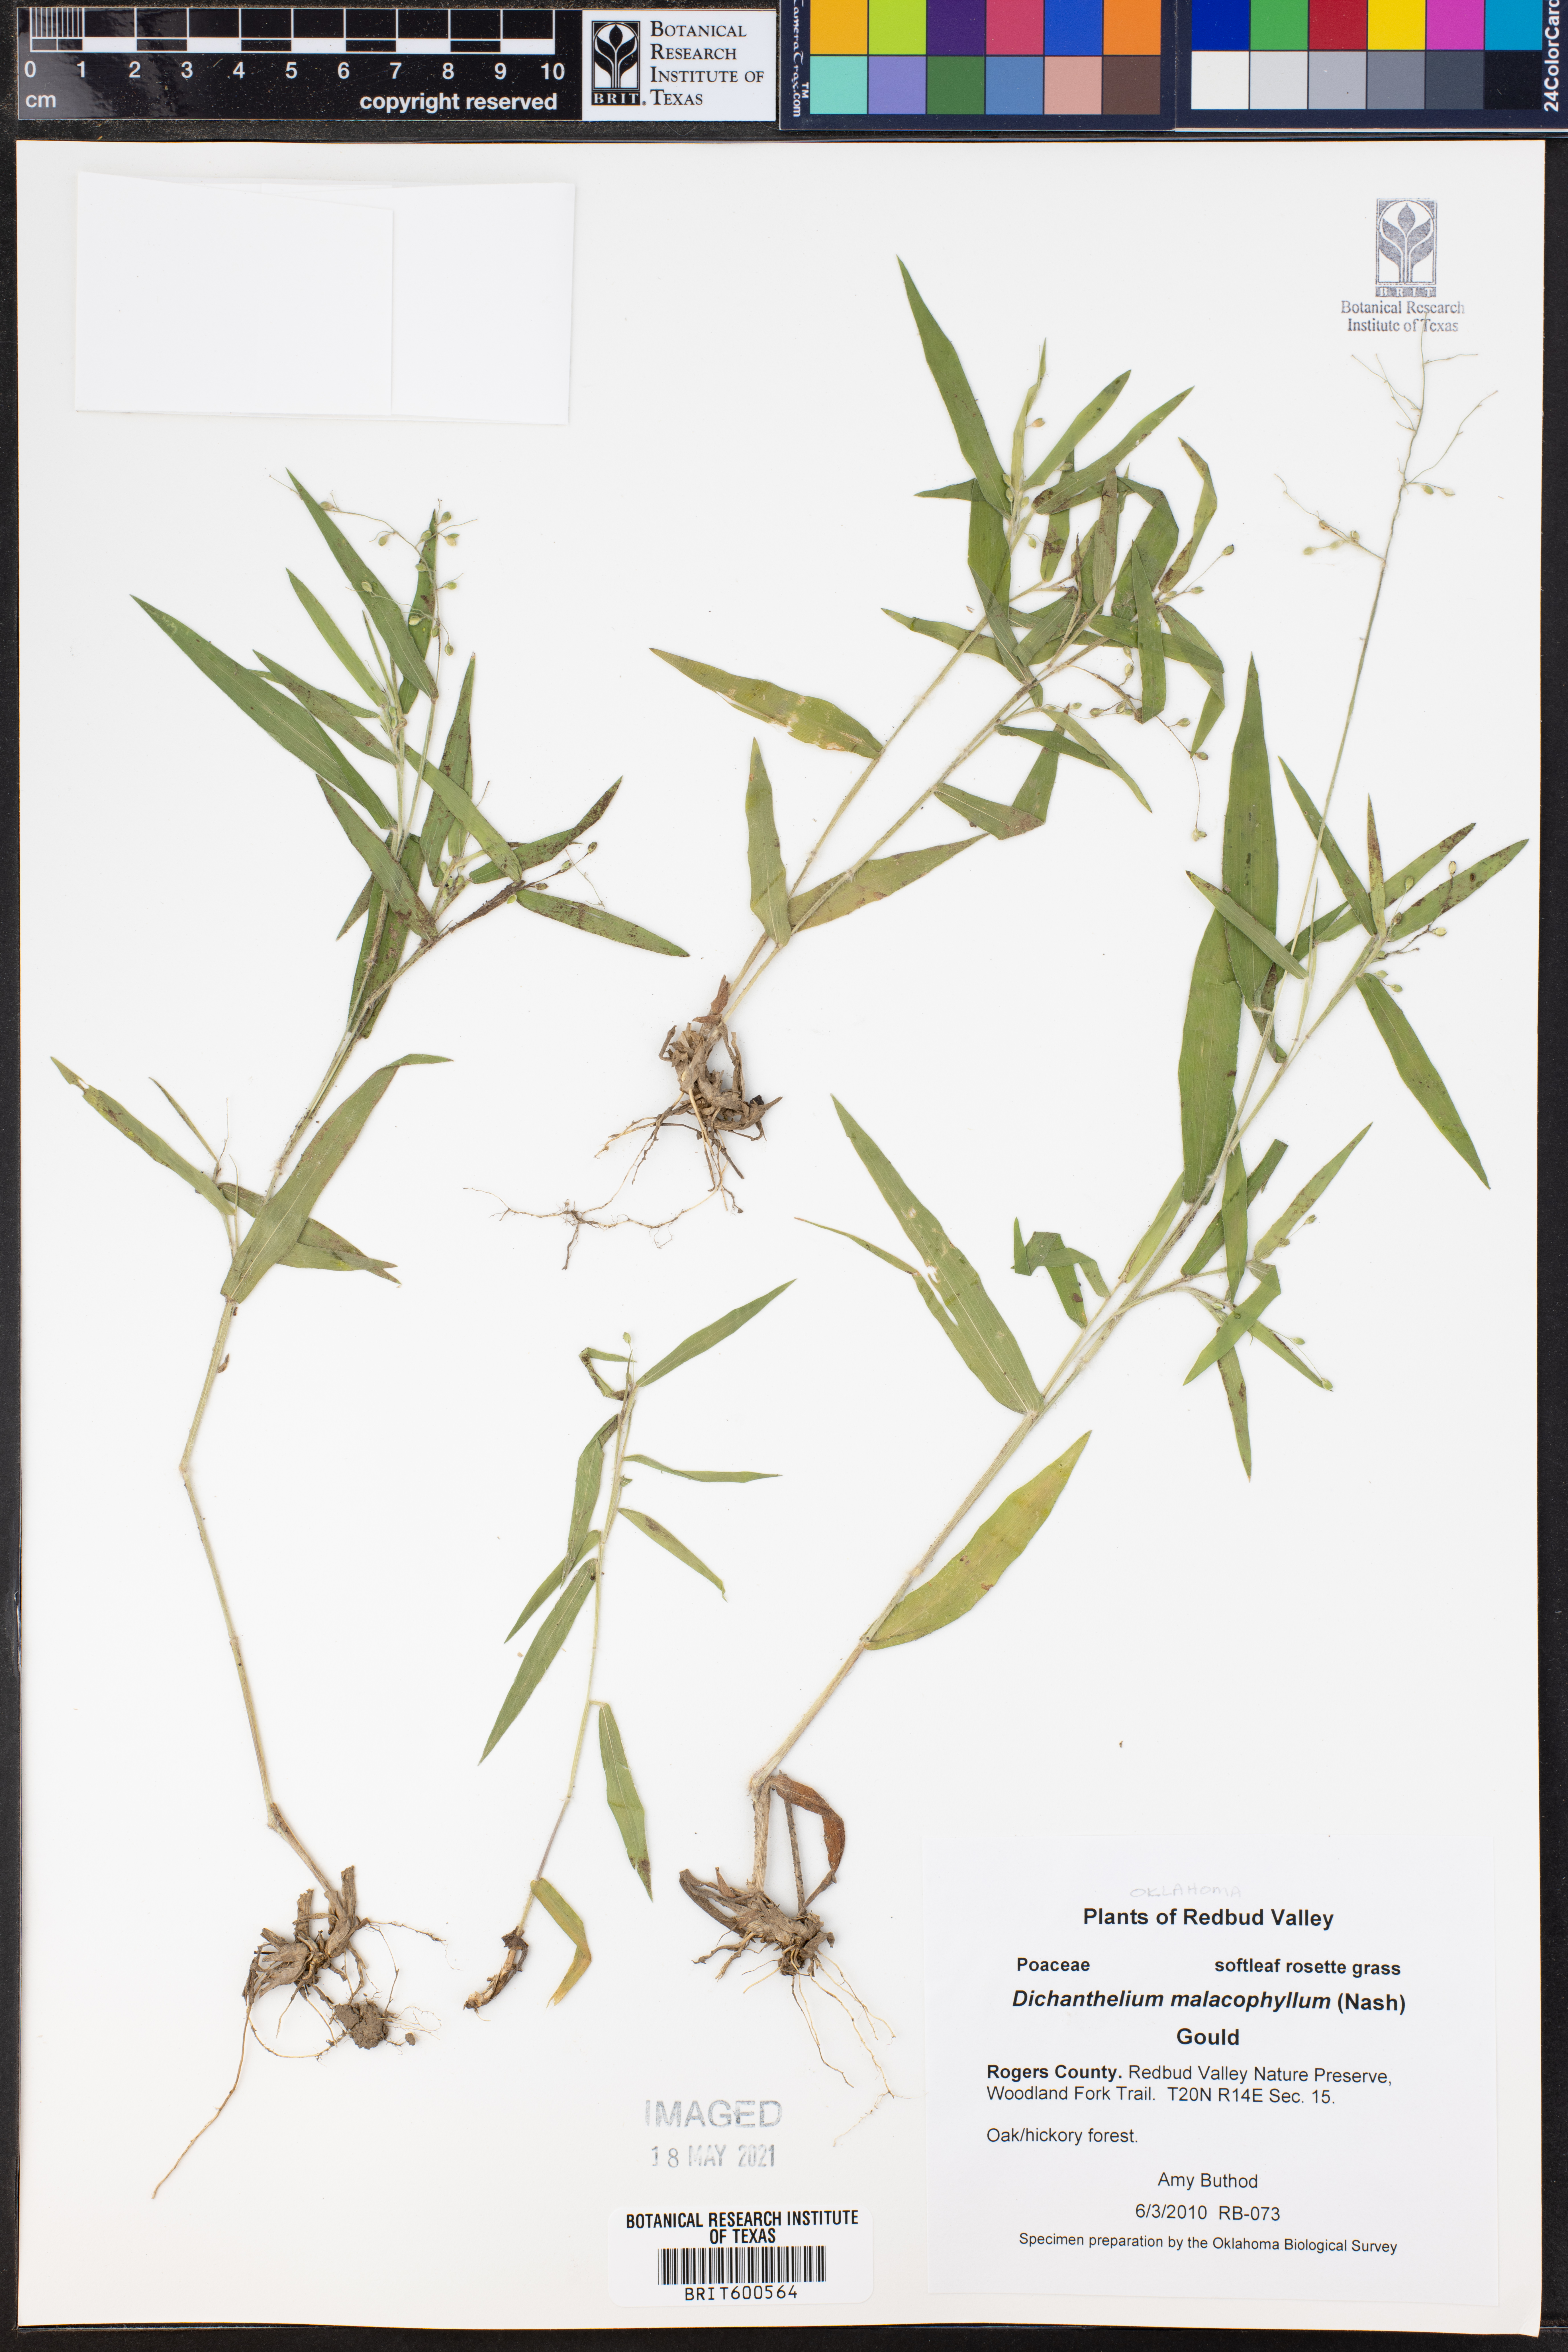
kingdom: Plantae
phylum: Tracheophyta
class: Liliopsida
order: Poales
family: Poaceae
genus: Dichanthelium
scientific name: Dichanthelium malacophyllum
